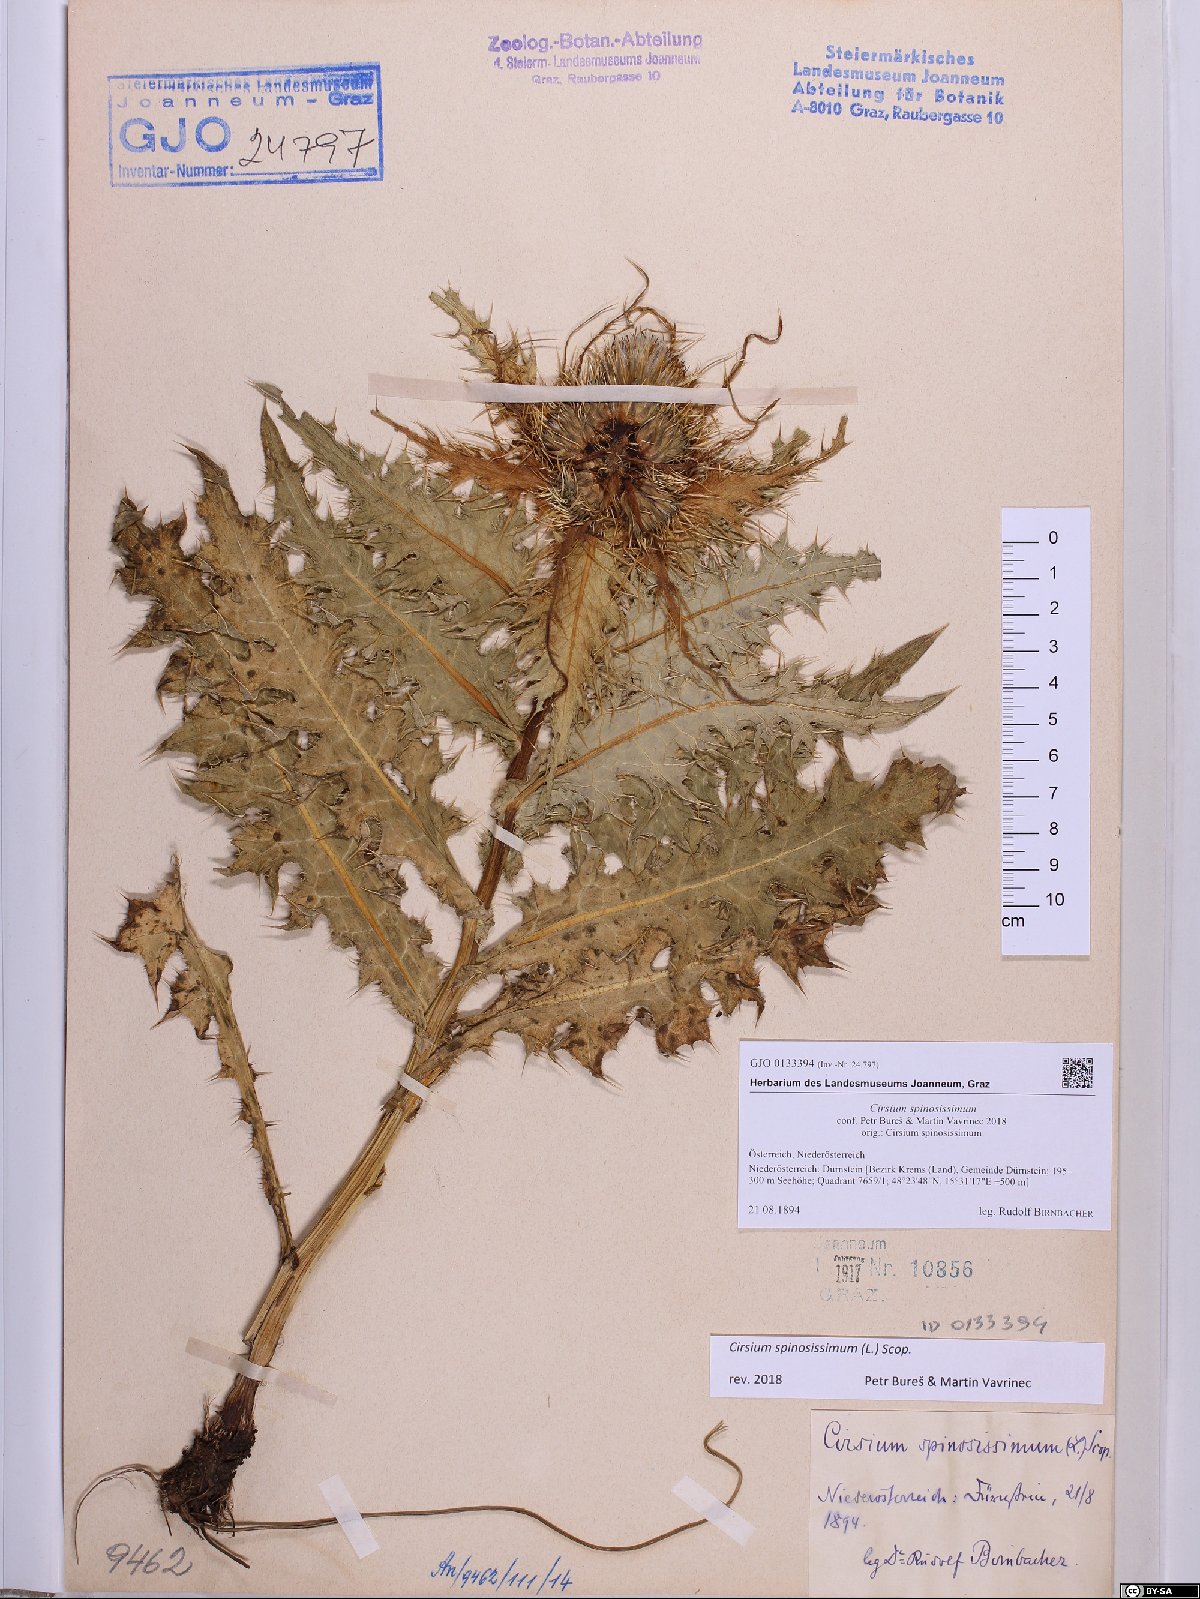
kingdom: Plantae
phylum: Tracheophyta
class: Magnoliopsida
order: Asterales
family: Asteraceae
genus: Cirsium
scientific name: Cirsium spinosissimum
